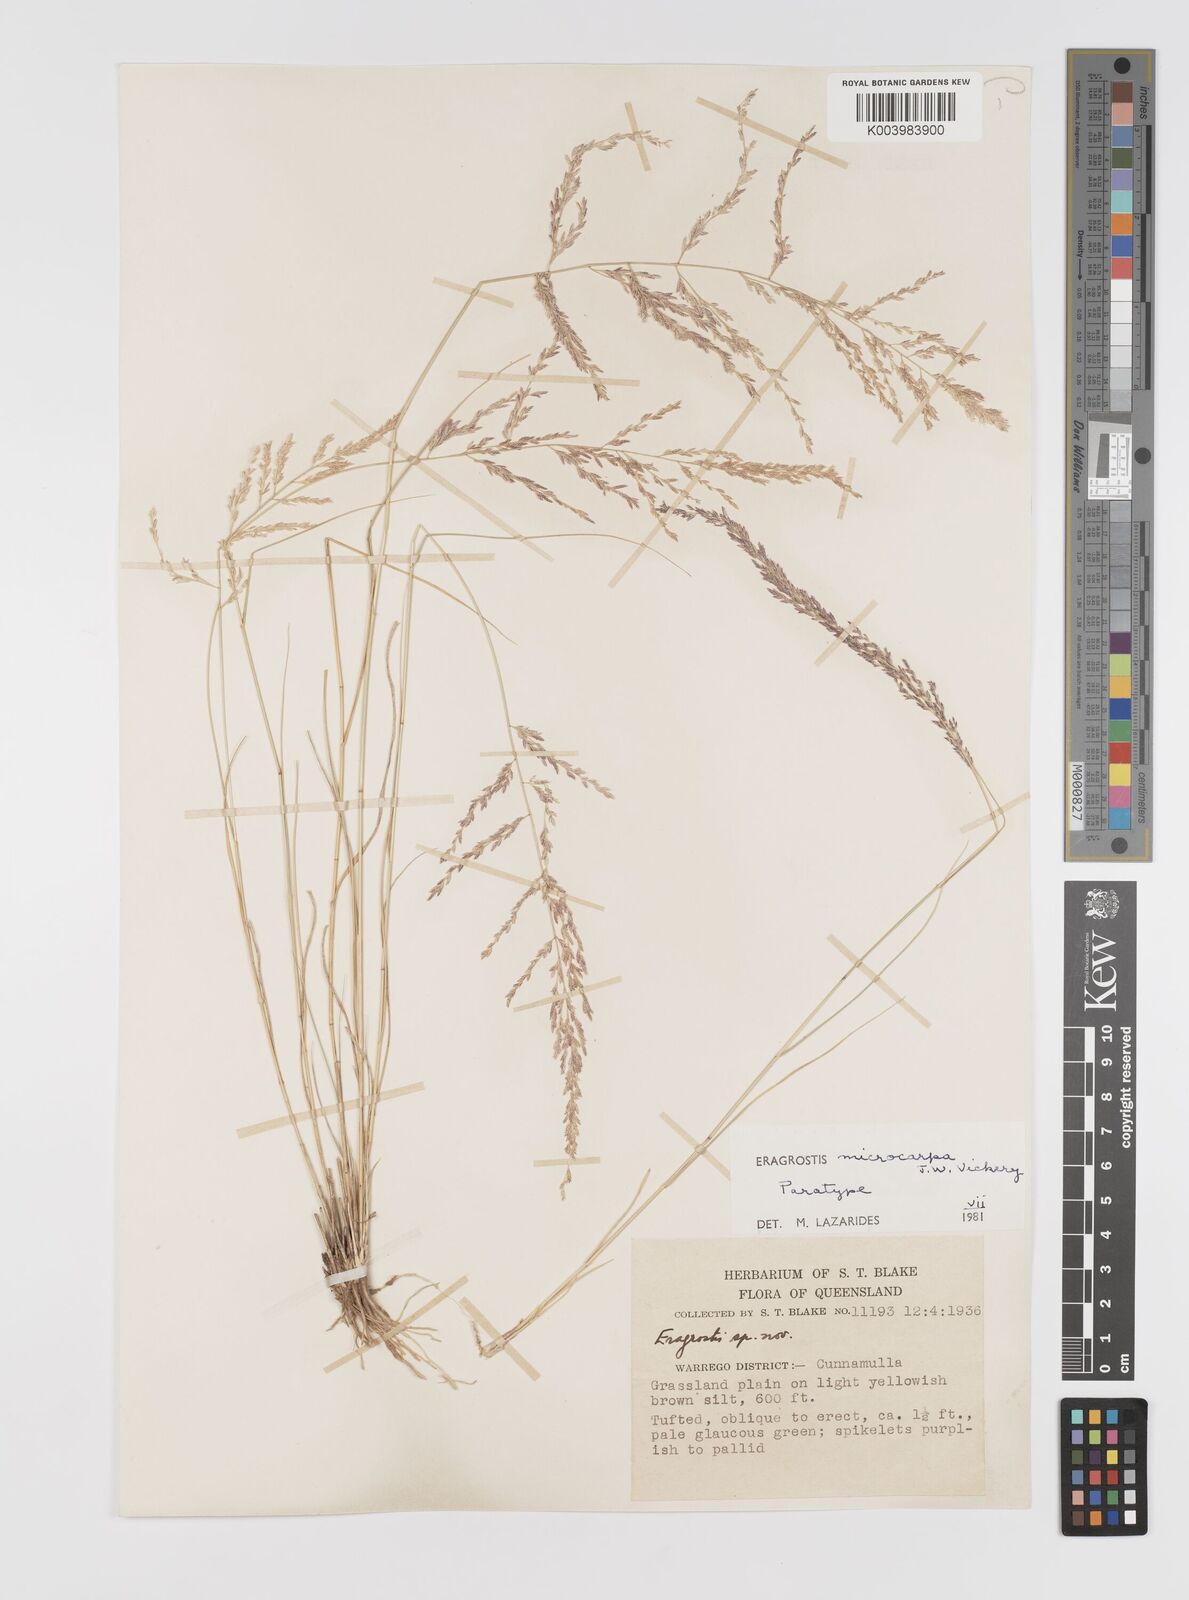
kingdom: Plantae
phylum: Tracheophyta
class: Liliopsida
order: Poales
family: Poaceae
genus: Eragrostis
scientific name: Eragrostis microcarpa
